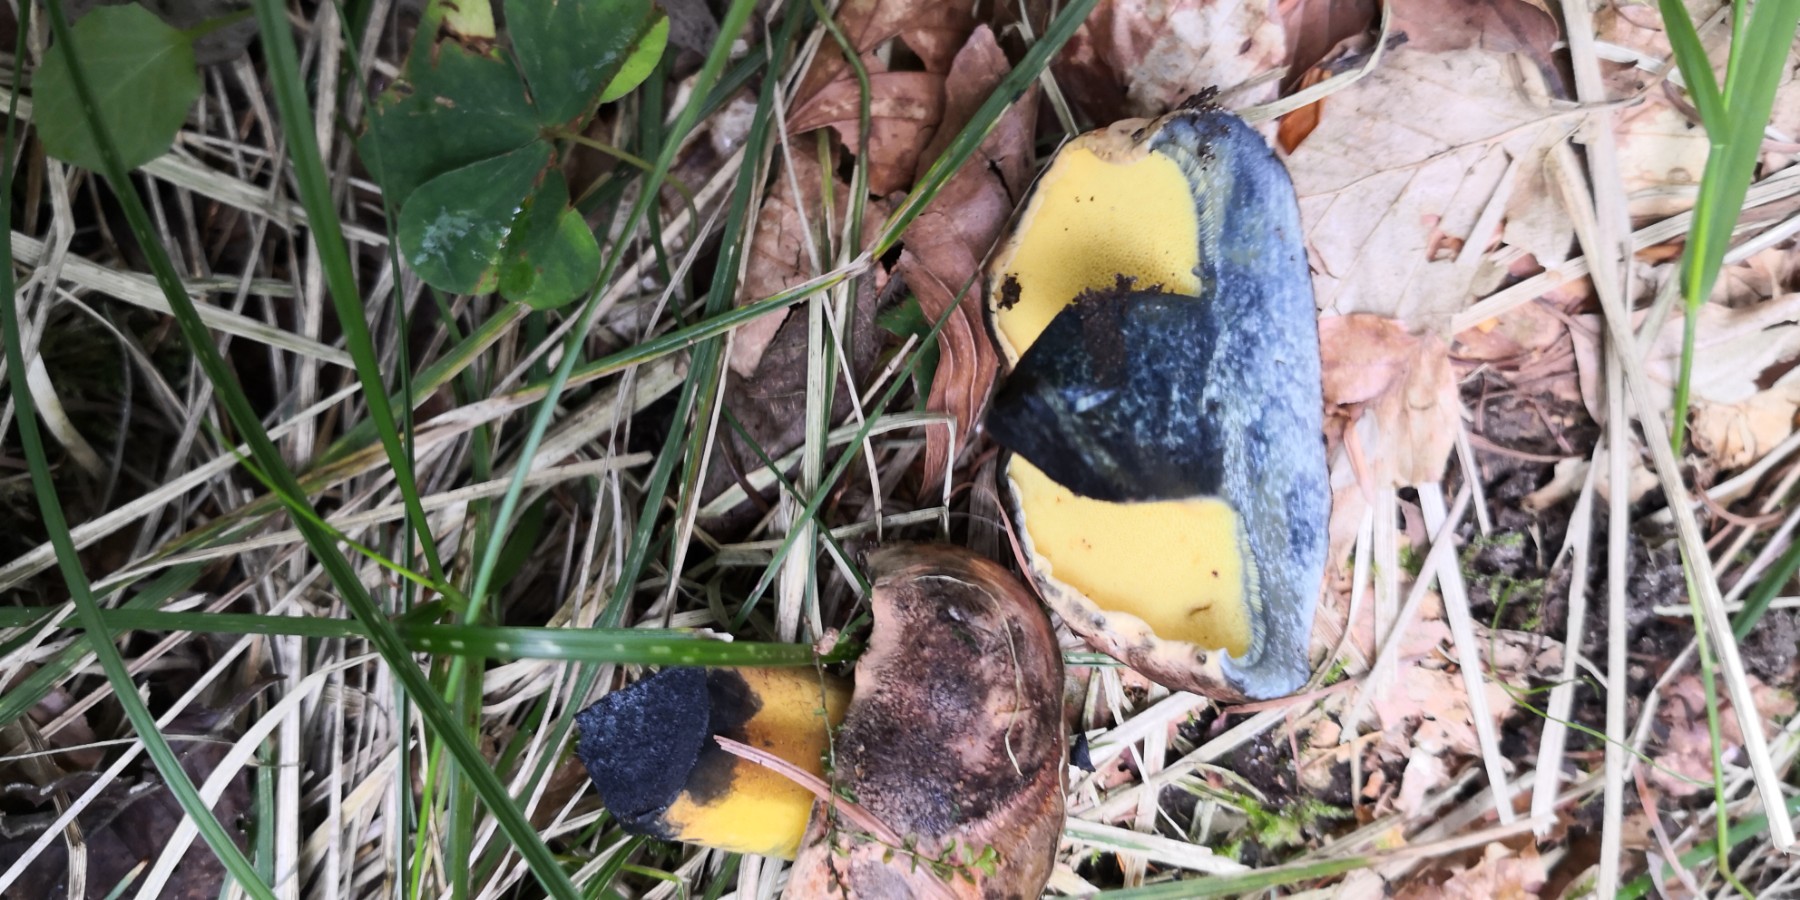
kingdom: Fungi
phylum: Basidiomycota
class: Agaricomycetes
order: Boletales
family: Boletaceae
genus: Cyanoboletus
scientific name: Cyanoboletus pulverulentus
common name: sortblånende rørhat
